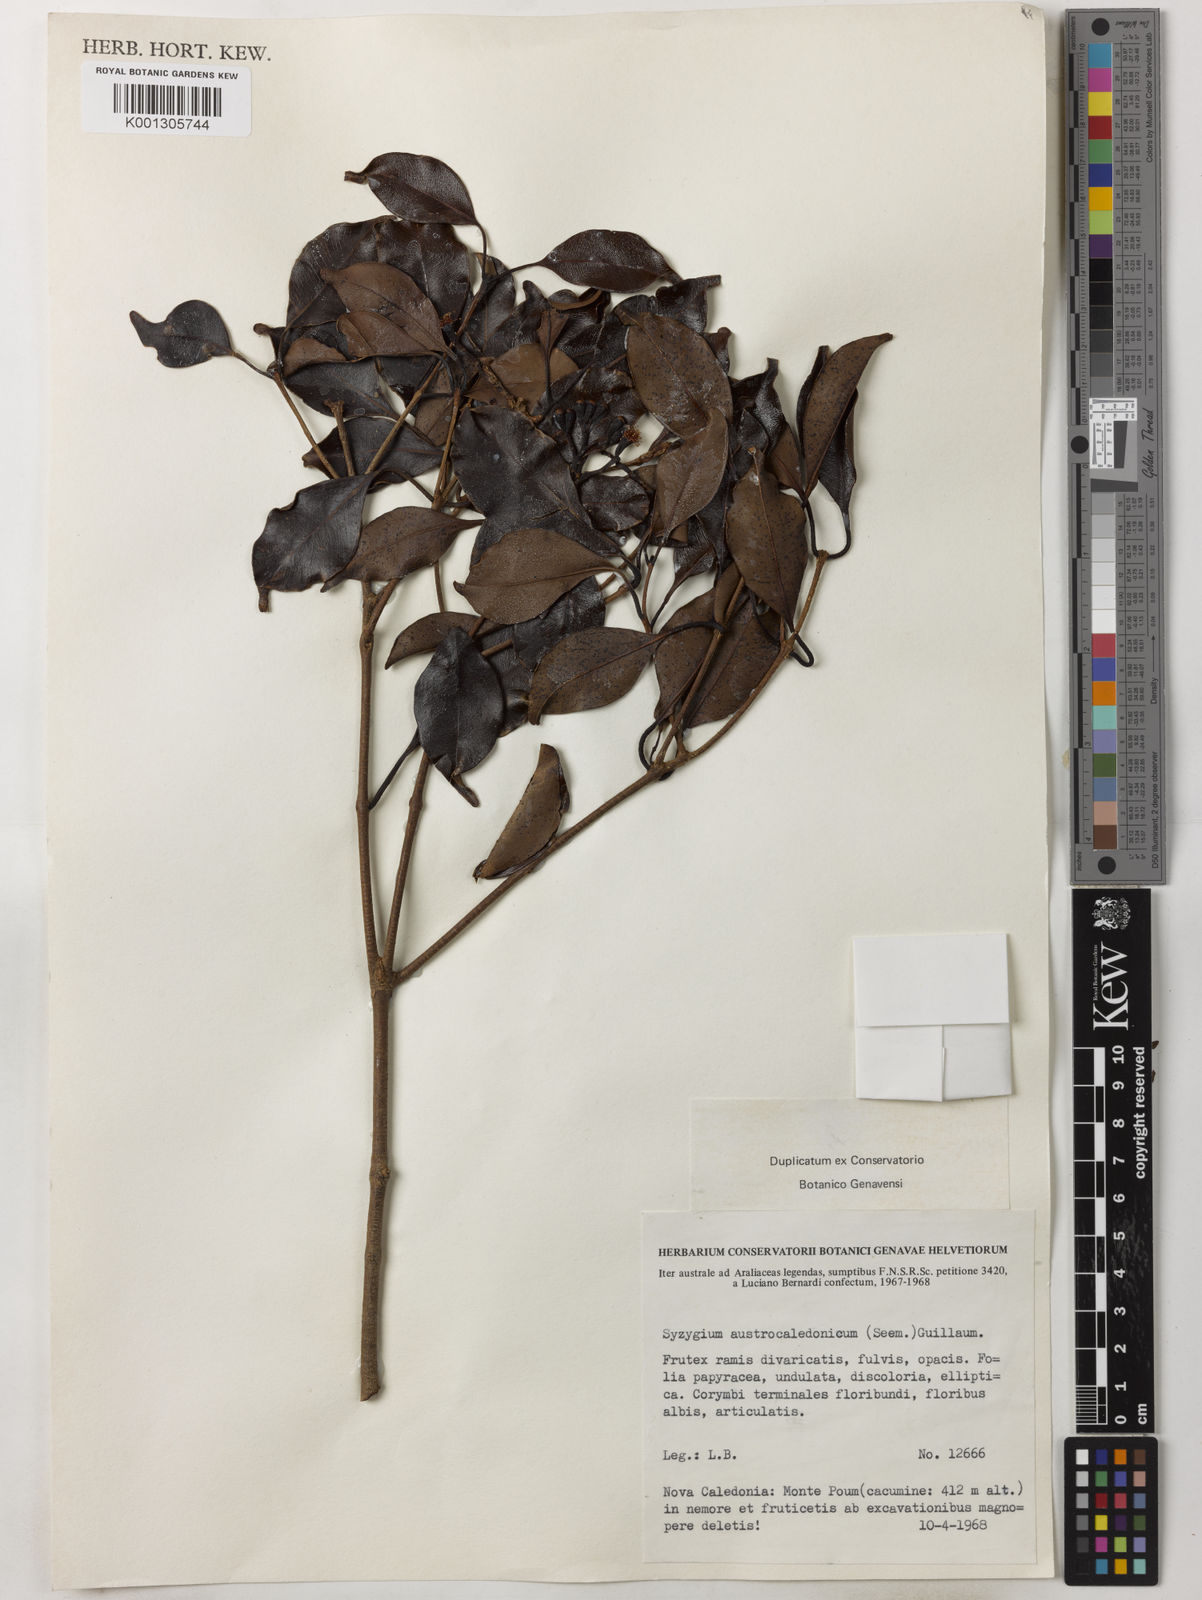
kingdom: Plantae
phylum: Tracheophyta
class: Magnoliopsida
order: Myrtales
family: Myrtaceae
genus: Syzygium
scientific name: Syzygium austrocaledonicum
